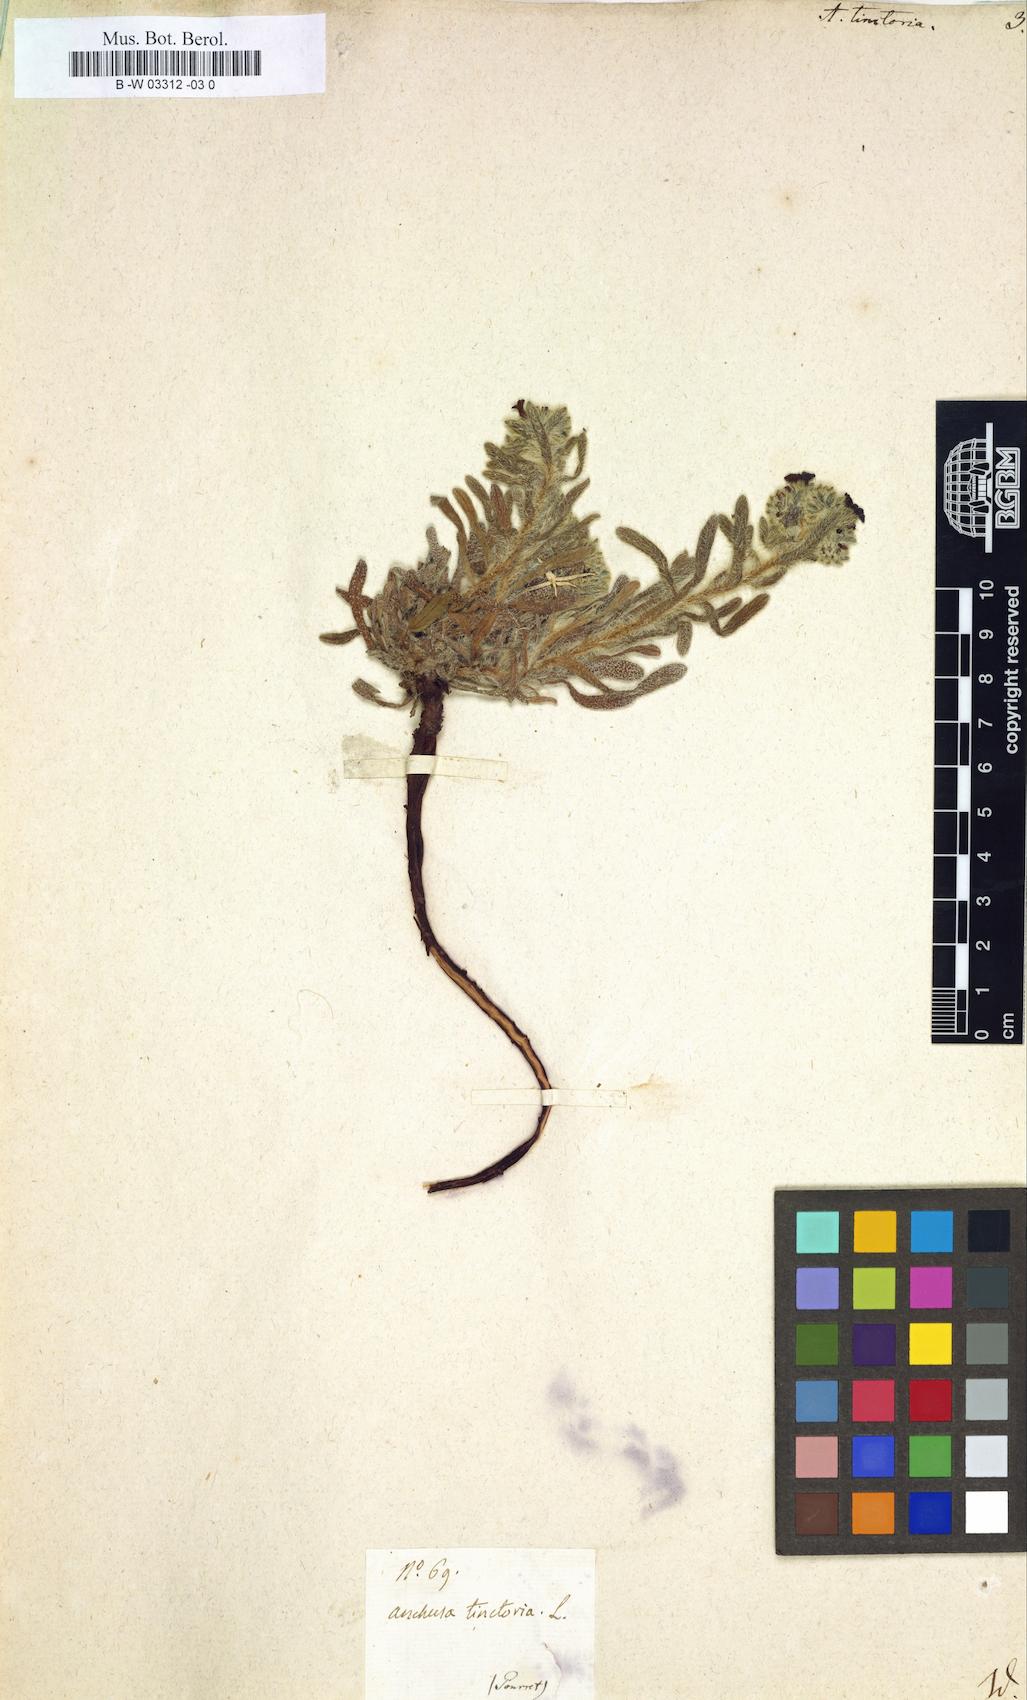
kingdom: Plantae
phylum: Tracheophyta
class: Magnoliopsida
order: Boraginales
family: Boraginaceae
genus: Alkanna
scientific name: Alkanna tinctoria
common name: Dyer's-alkanet
